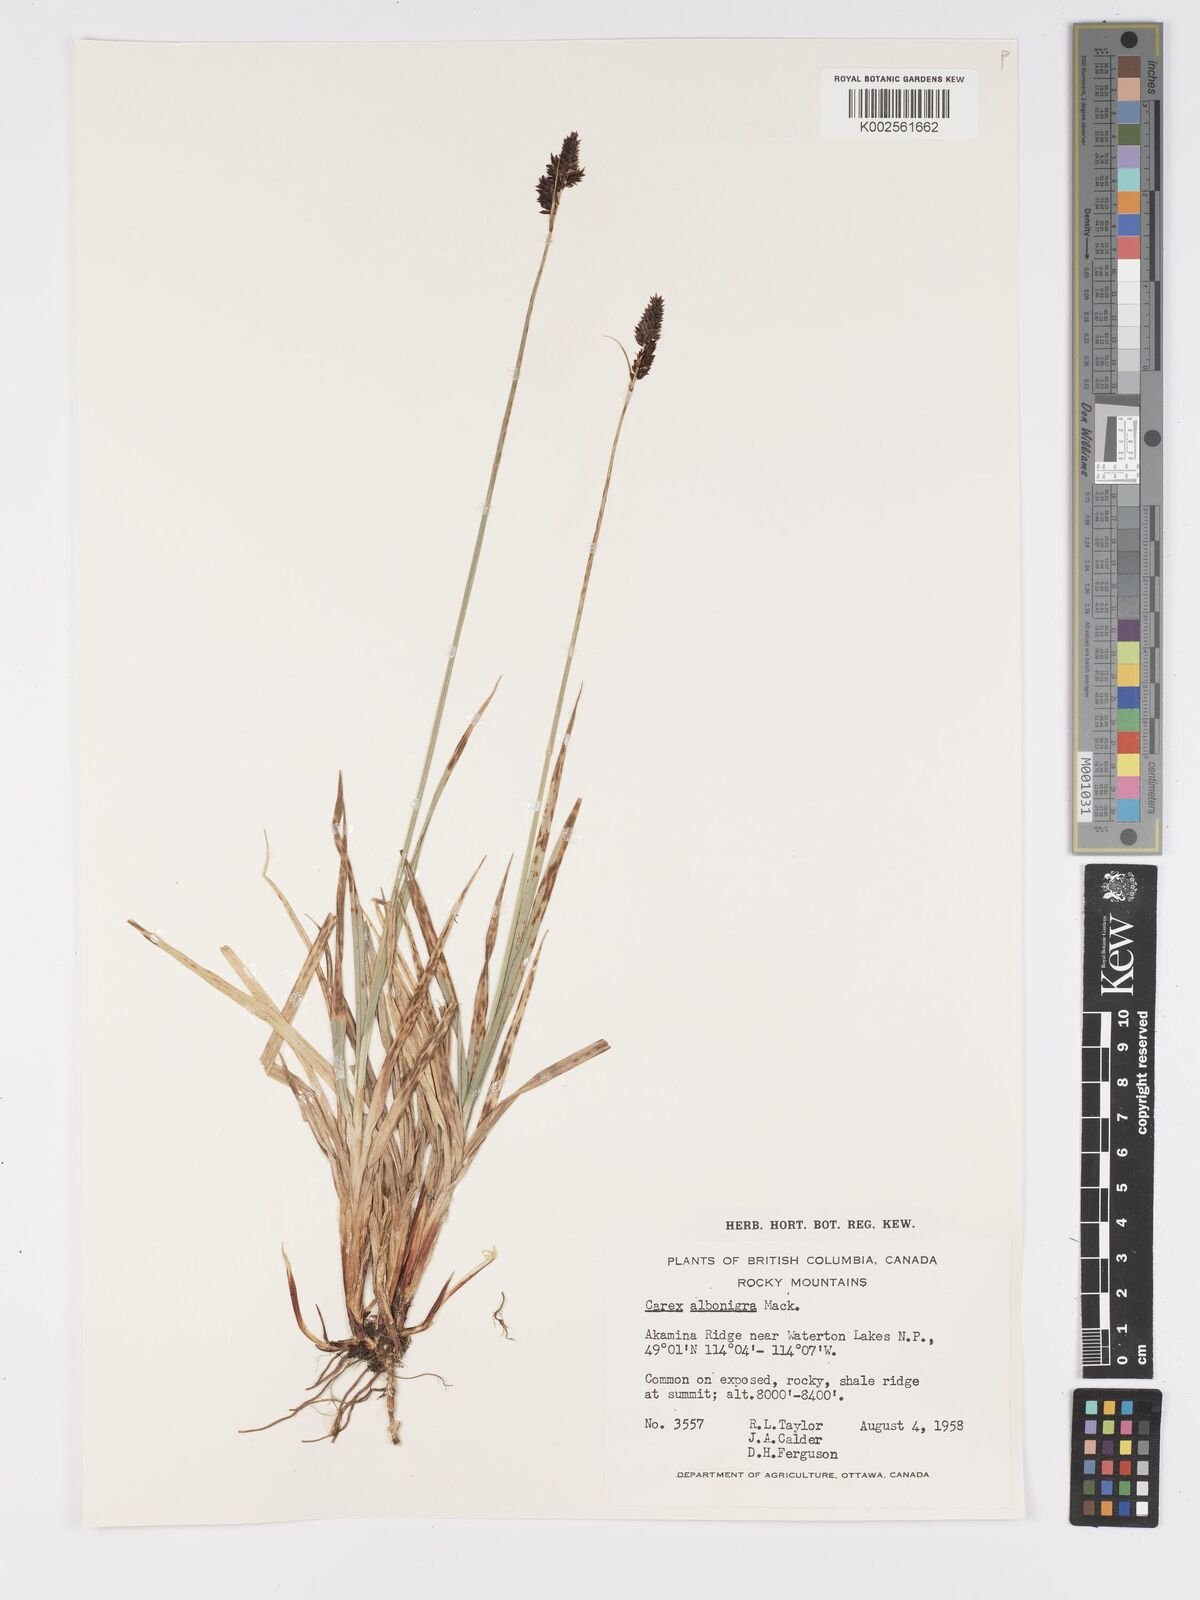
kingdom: Plantae
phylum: Tracheophyta
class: Liliopsida
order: Poales
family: Cyperaceae
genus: Carex
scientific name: Carex albonigra
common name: Black-and-white sedge
